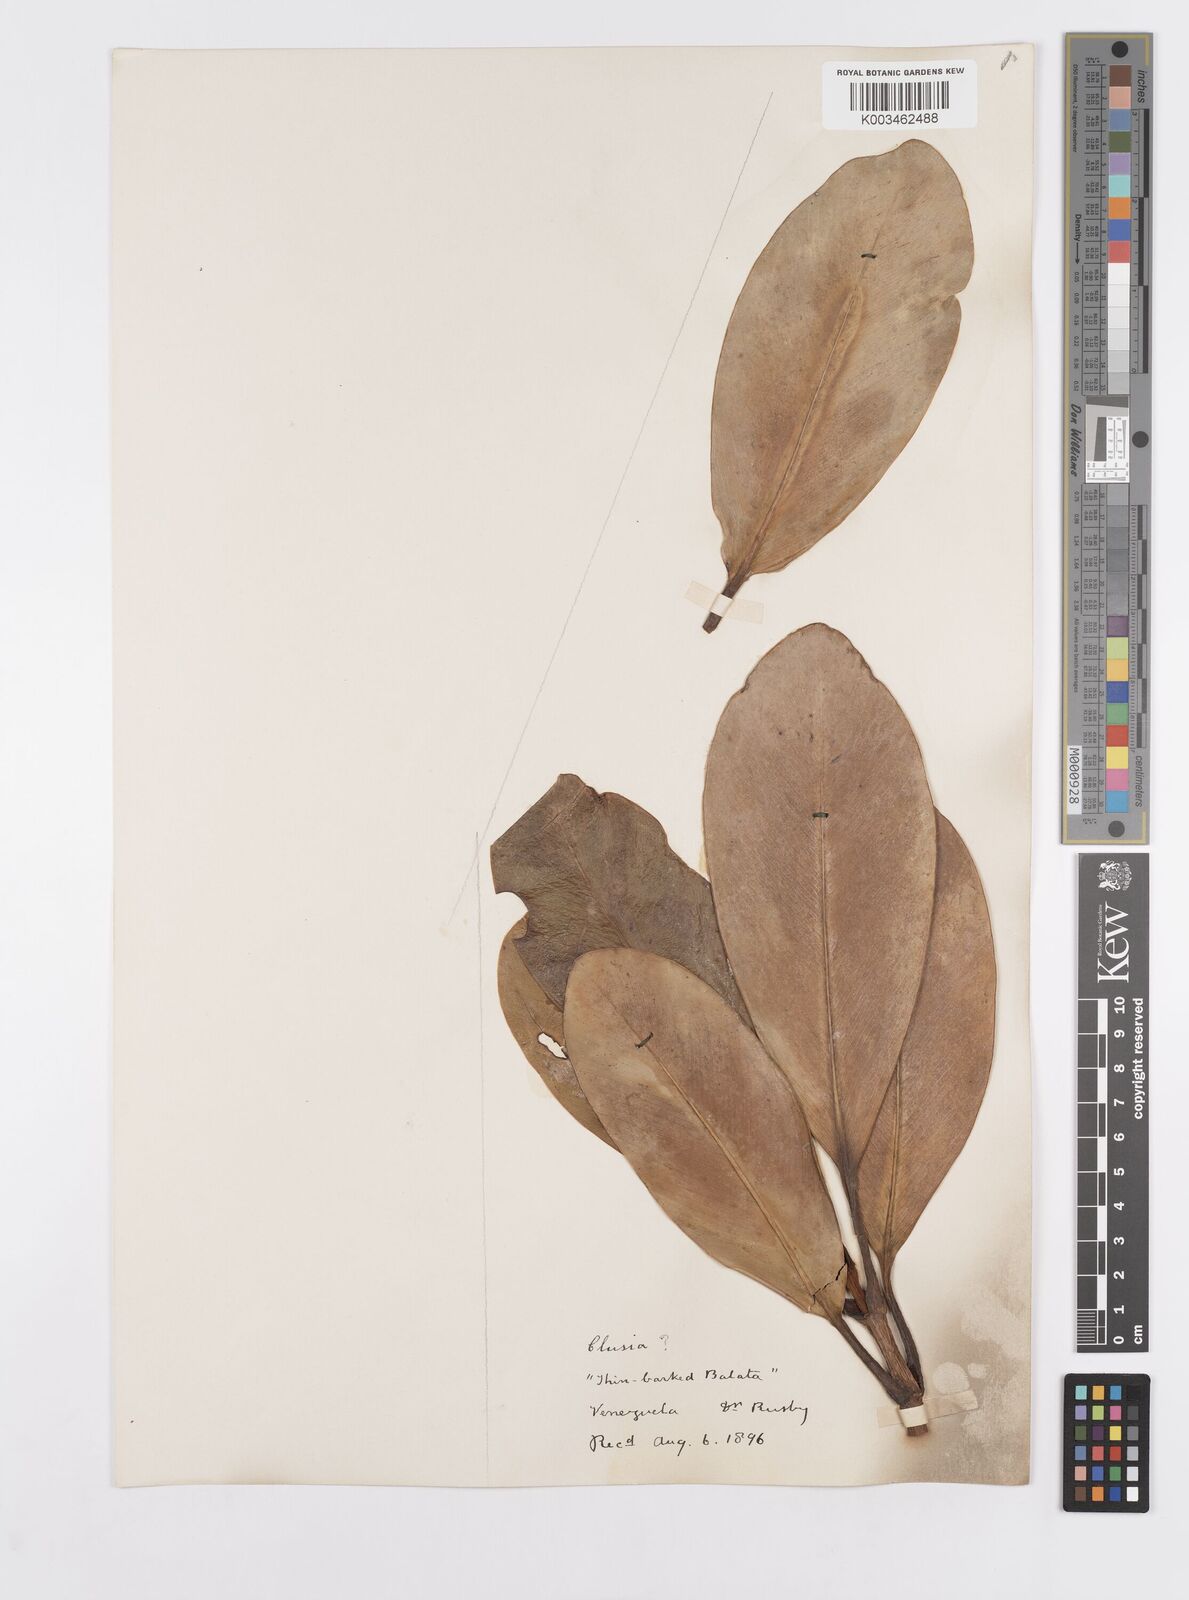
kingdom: Plantae
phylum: Tracheophyta
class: Magnoliopsida
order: Malpighiales
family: Clusiaceae
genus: Clusia
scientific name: Clusia palmicida
